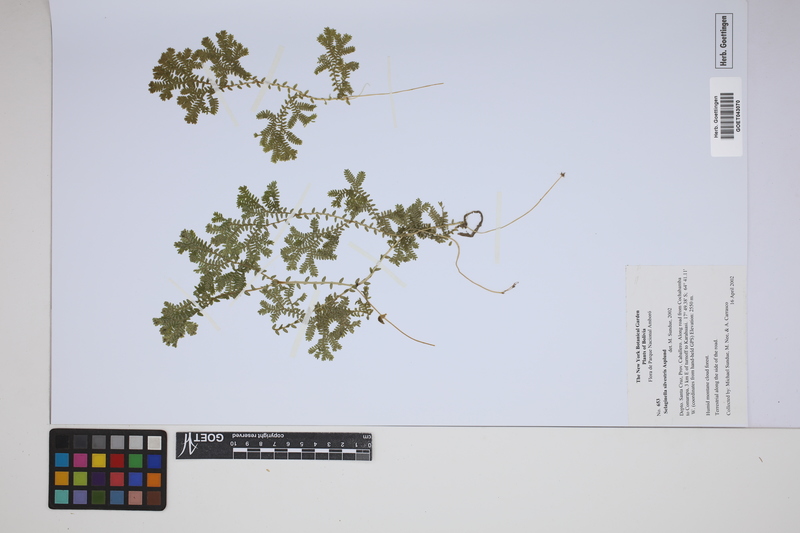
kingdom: Plantae
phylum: Tracheophyta
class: Lycopodiopsida
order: Selaginellales
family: Selaginellaceae
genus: Selaginella
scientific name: Selaginella silvestris
